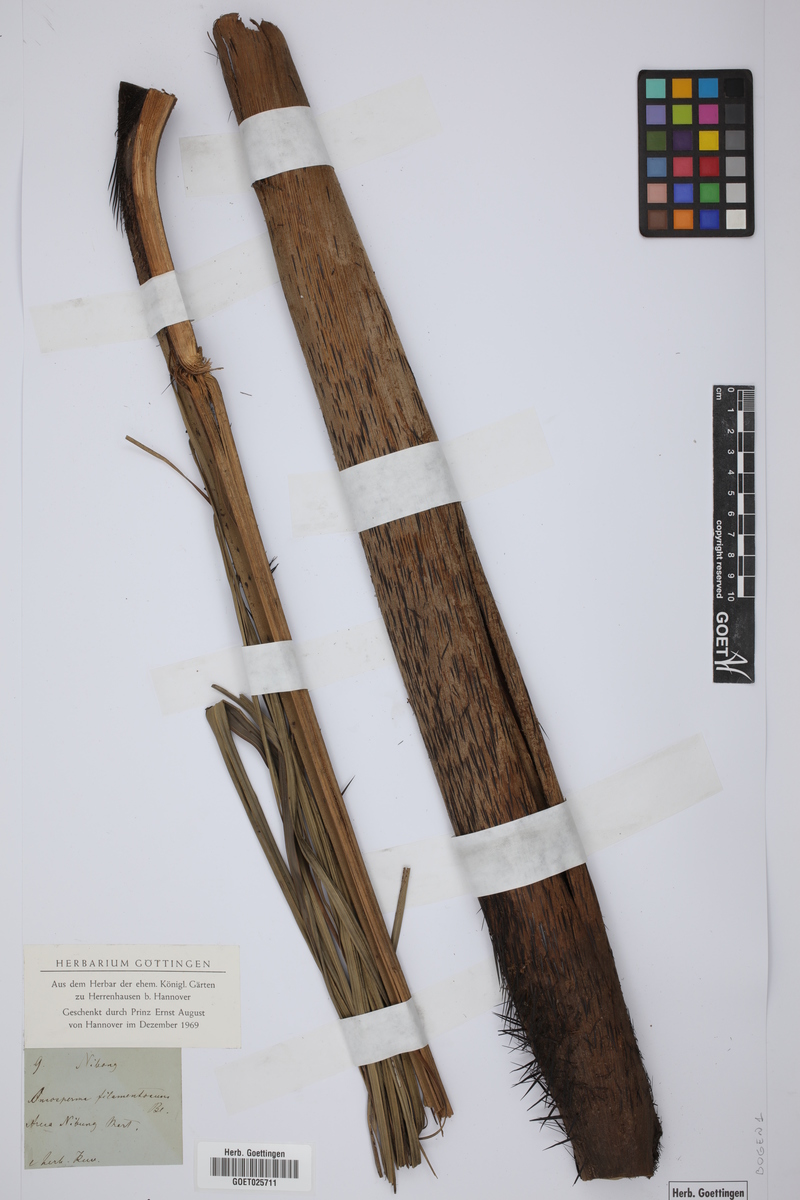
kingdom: Plantae
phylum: Tracheophyta
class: Liliopsida
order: Arecales
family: Arecaceae
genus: Oncosperma
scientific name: Oncosperma tigillarium
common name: Nibong
